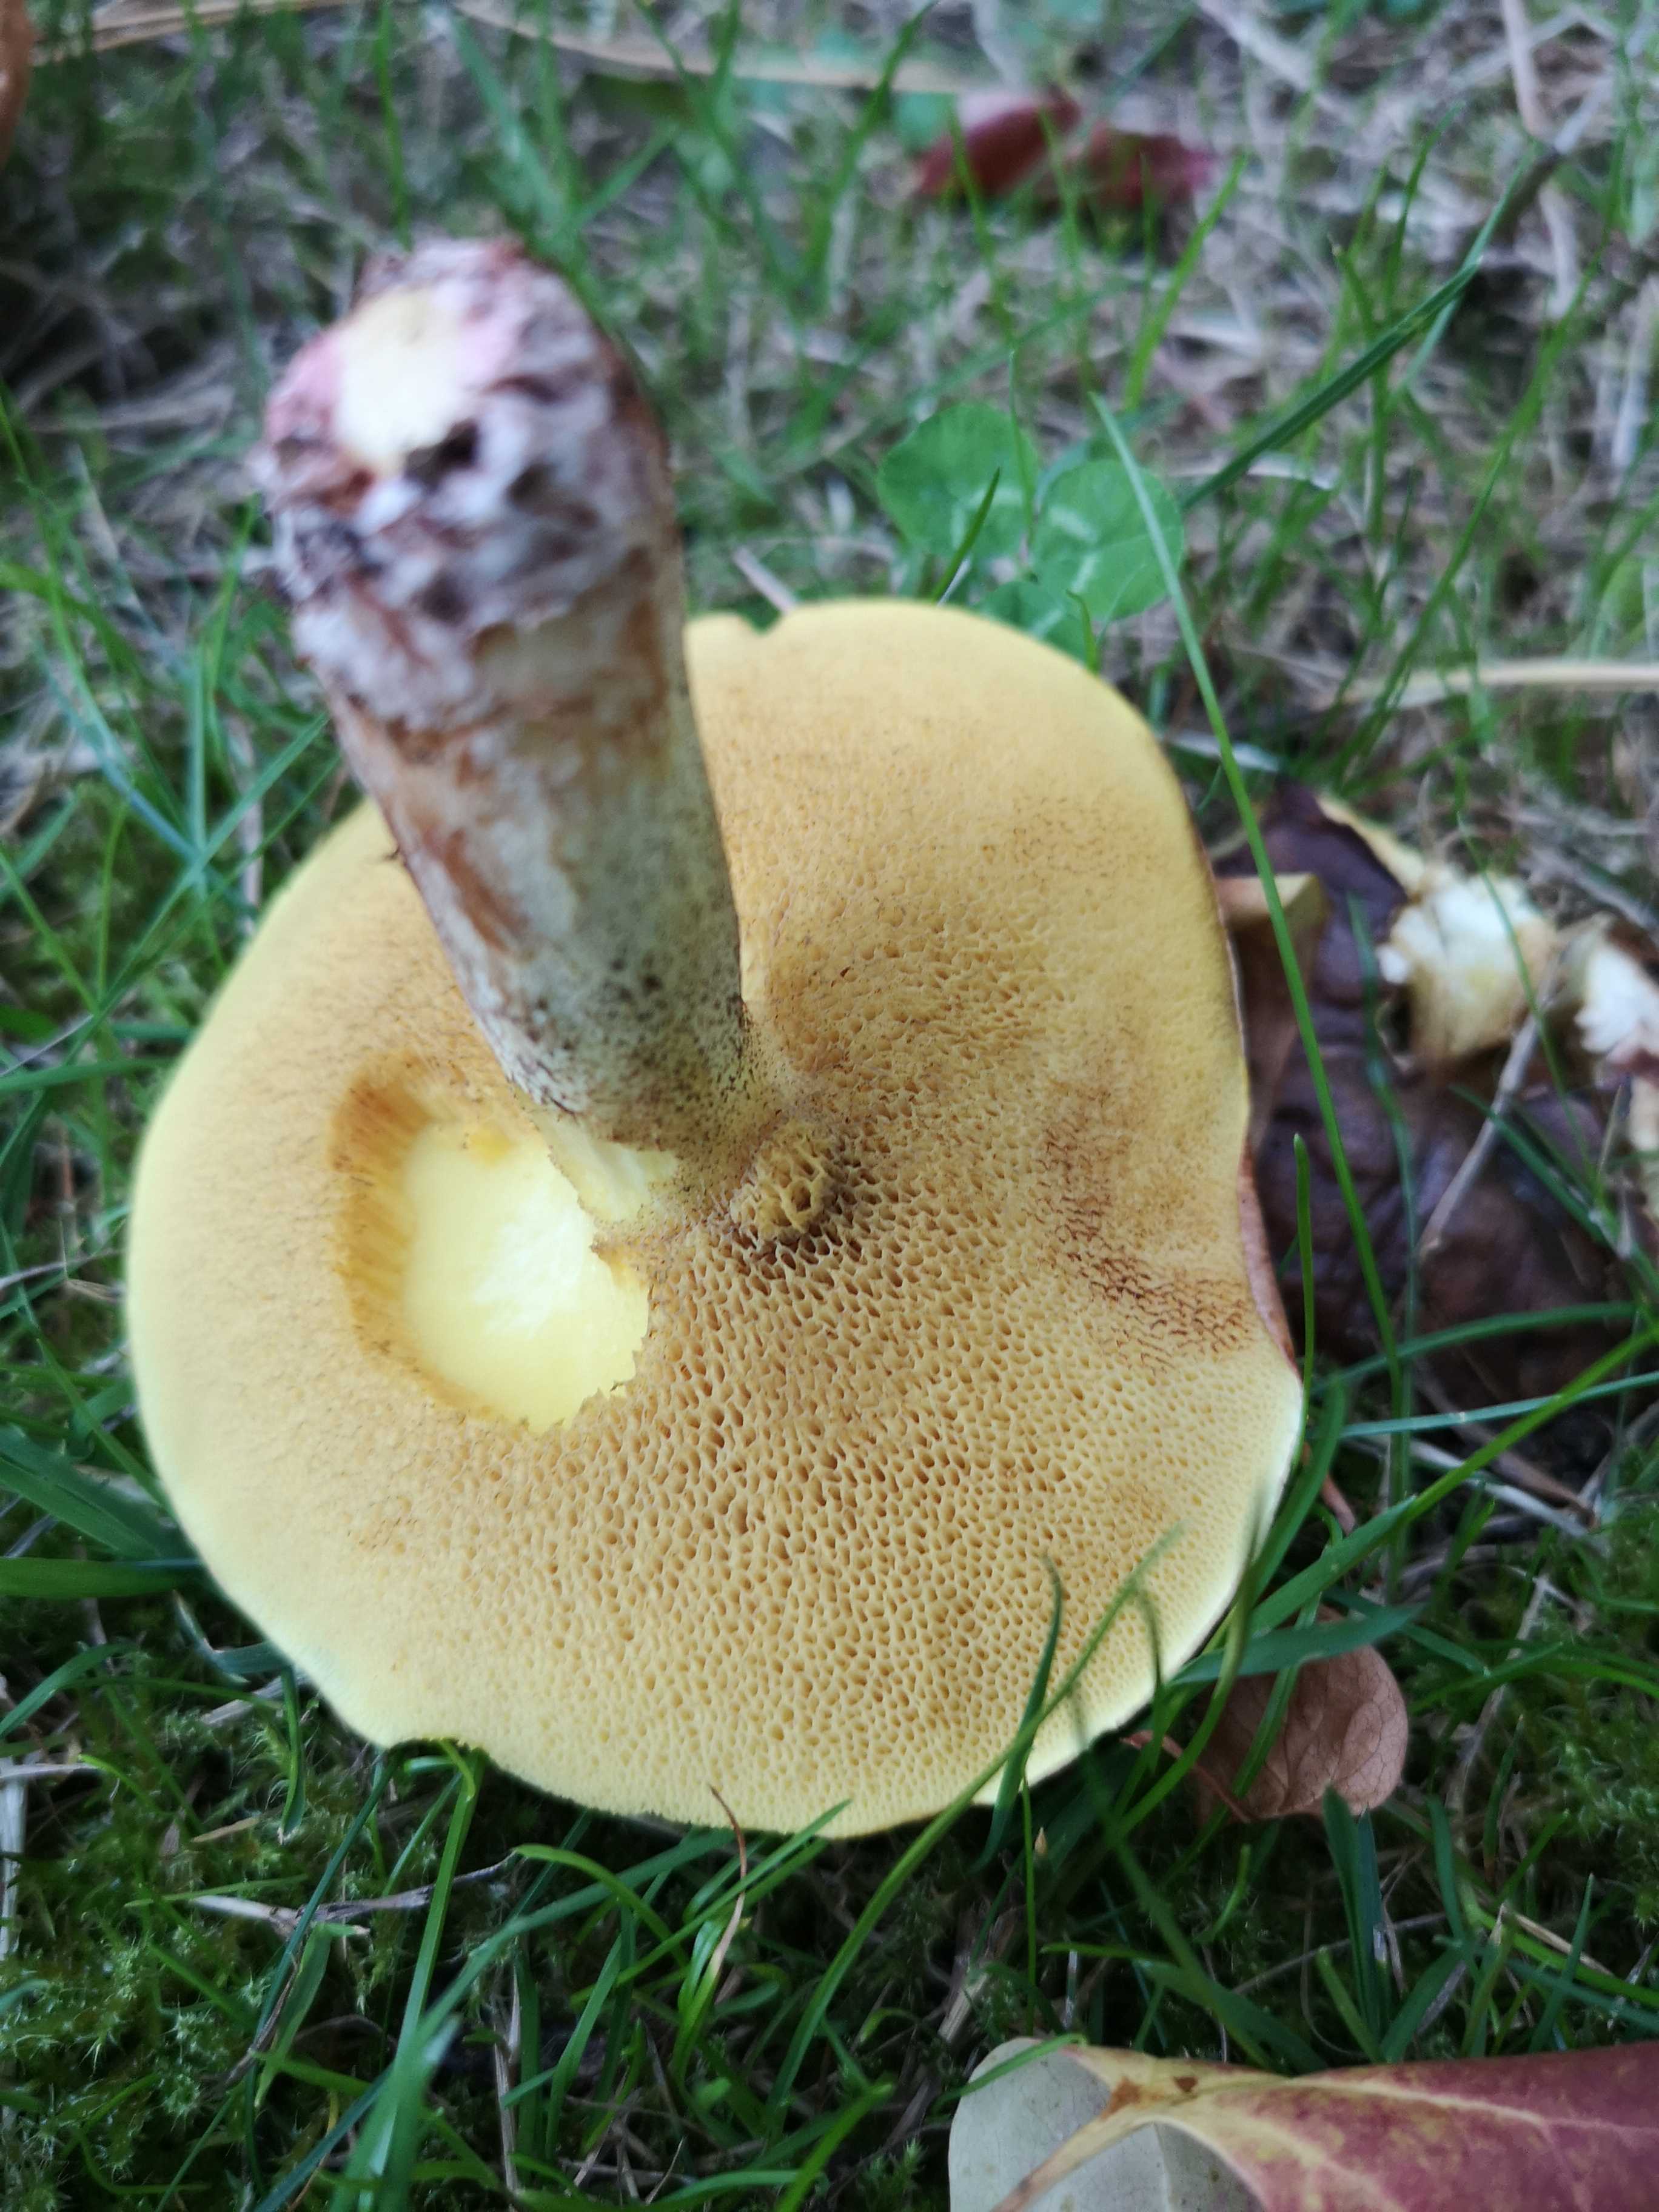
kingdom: Fungi
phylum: Basidiomycota
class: Agaricomycetes
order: Boletales
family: Suillaceae
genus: Suillus
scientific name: Suillus collinitus
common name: rosafodet slimrørhat
